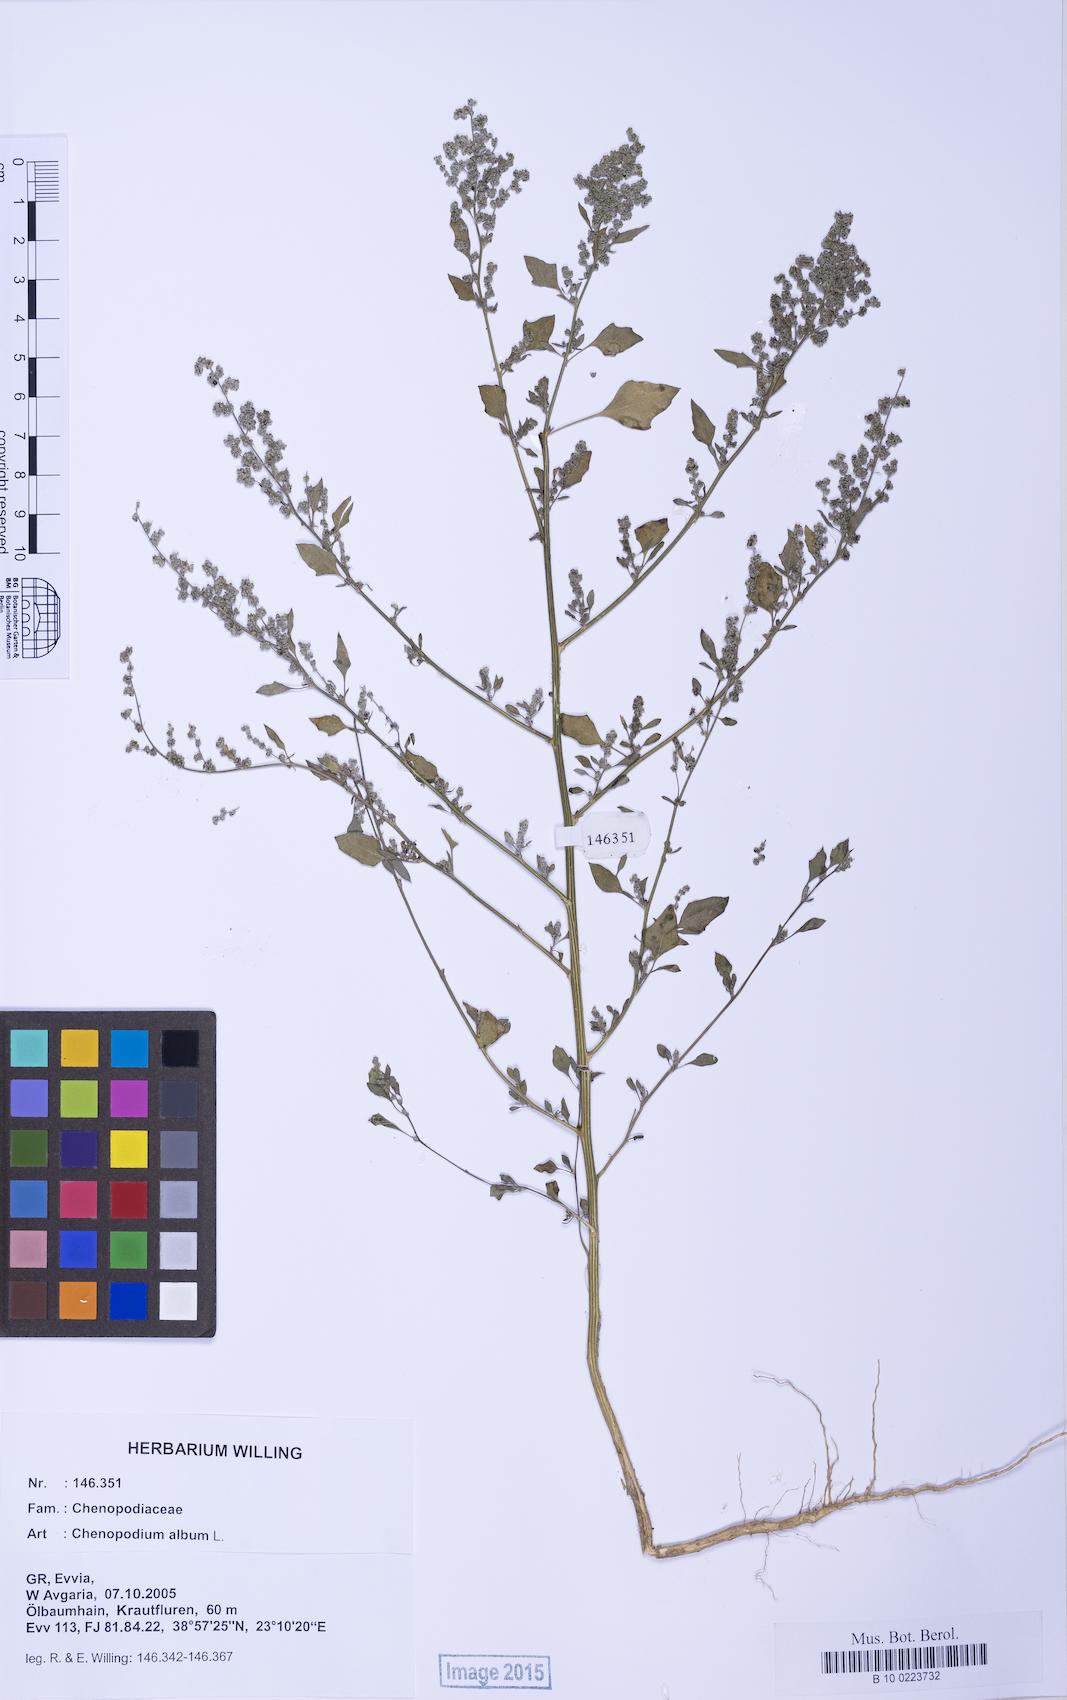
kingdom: Plantae
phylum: Tracheophyta
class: Magnoliopsida
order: Caryophyllales
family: Amaranthaceae
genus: Chenopodium
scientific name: Chenopodium album
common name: Fat-hen
